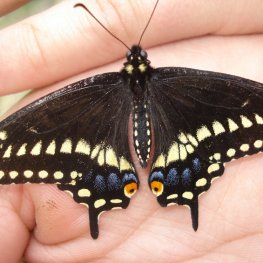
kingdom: Animalia
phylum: Arthropoda
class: Insecta
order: Lepidoptera
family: Papilionidae
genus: Papilio
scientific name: Papilio polyxenes
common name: Black Swallowtail
